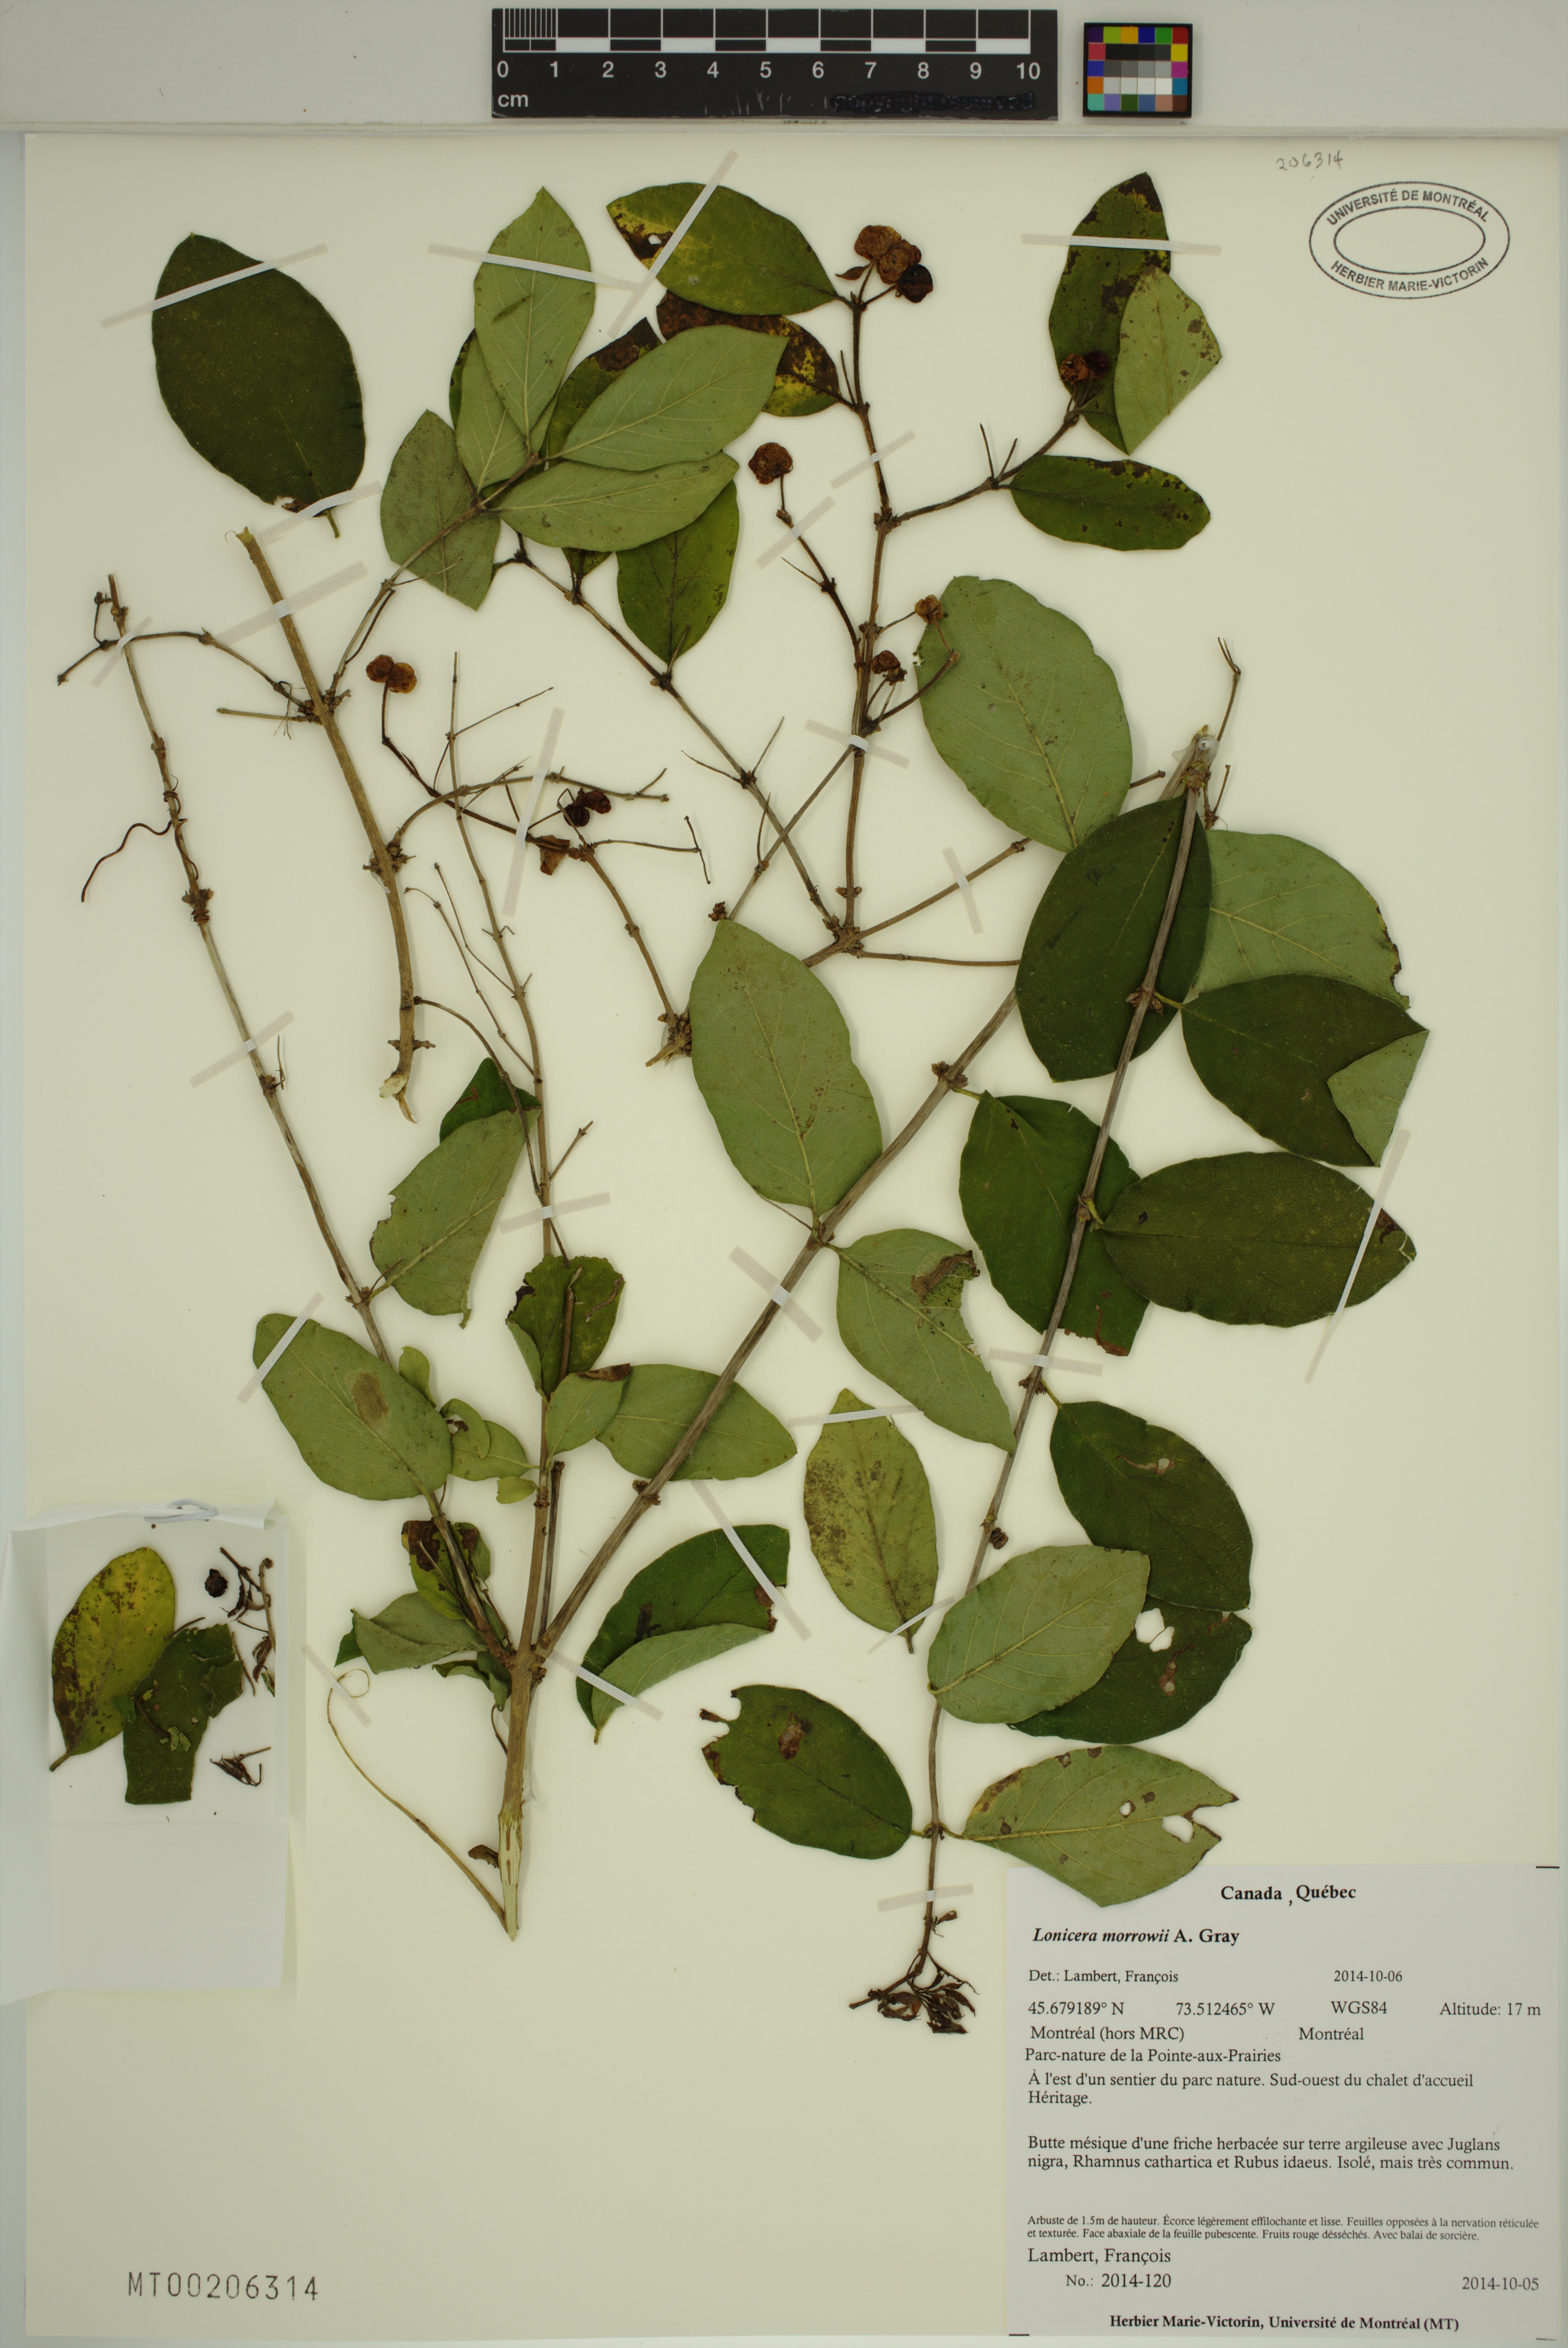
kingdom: Plantae
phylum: Tracheophyta
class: Magnoliopsida
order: Dipsacales
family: Caprifoliaceae
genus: Lonicera
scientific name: Lonicera morrowii
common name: Morrow's honeysuckle
